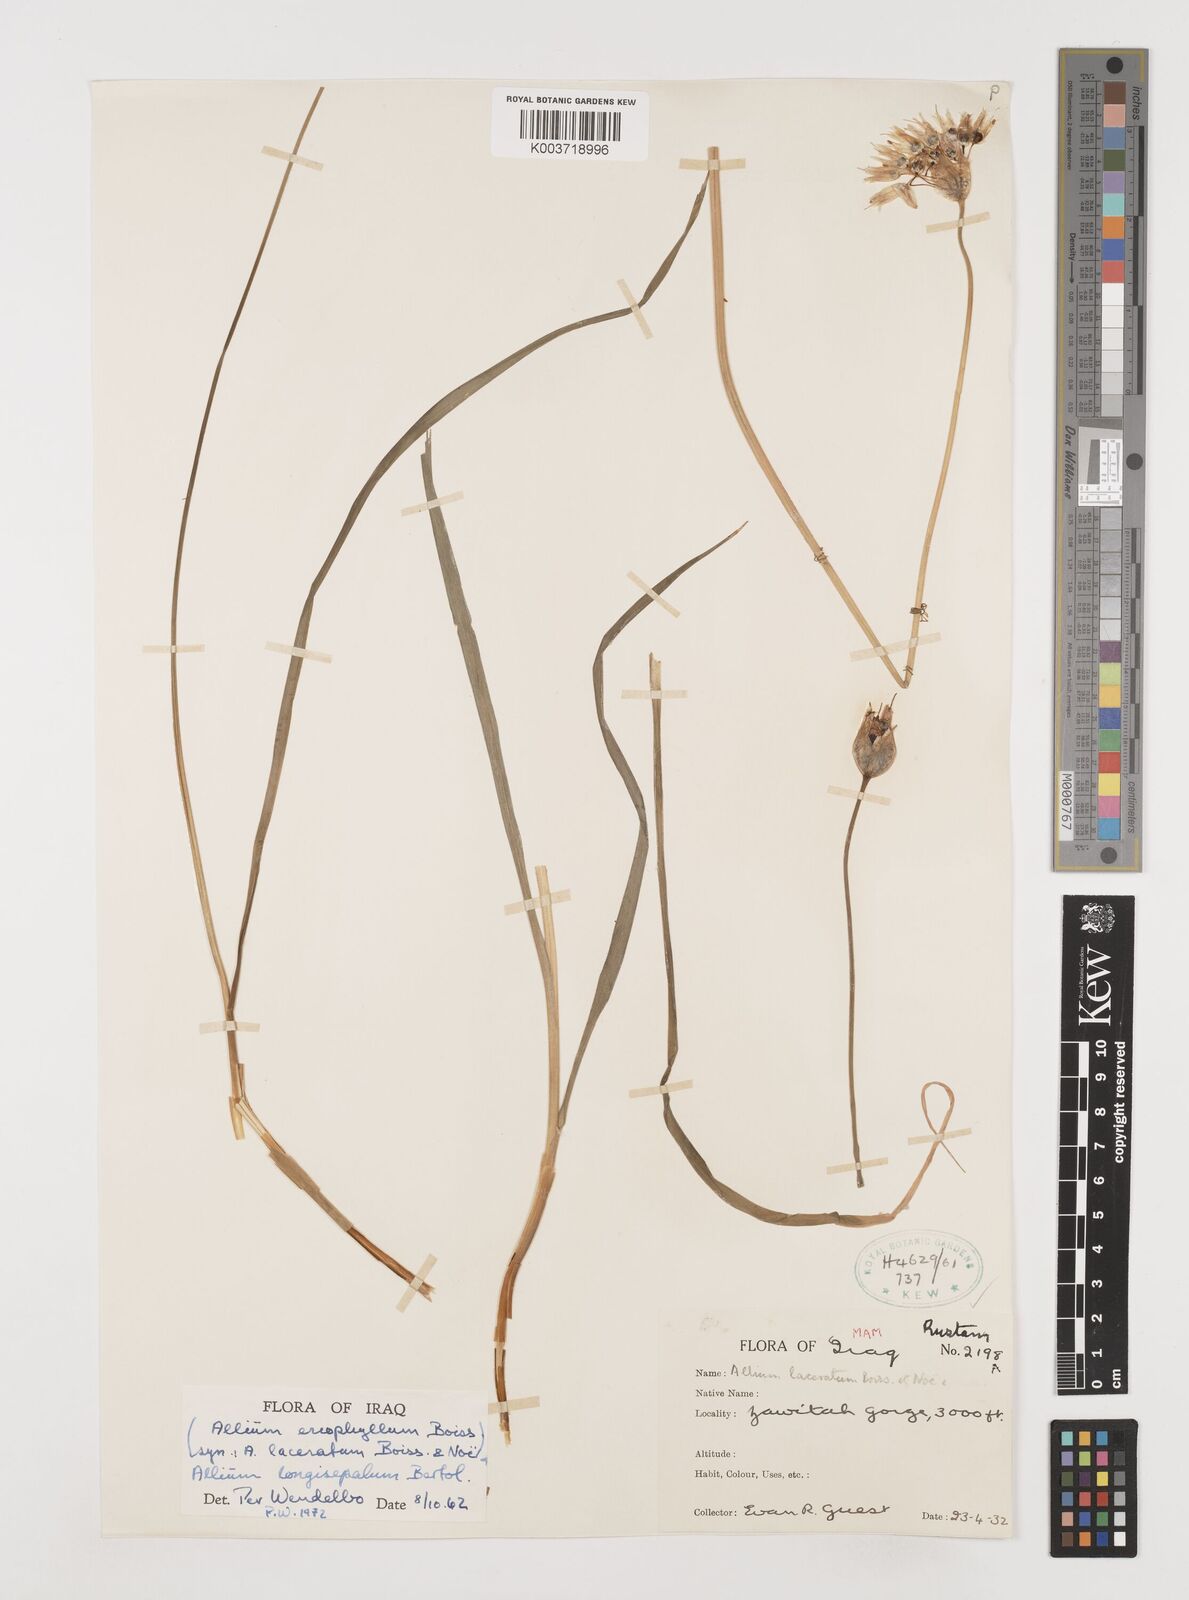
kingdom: Plantae
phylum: Tracheophyta
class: Liliopsida
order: Asparagales
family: Amaryllidaceae
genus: Allium
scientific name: Allium longisepalum
